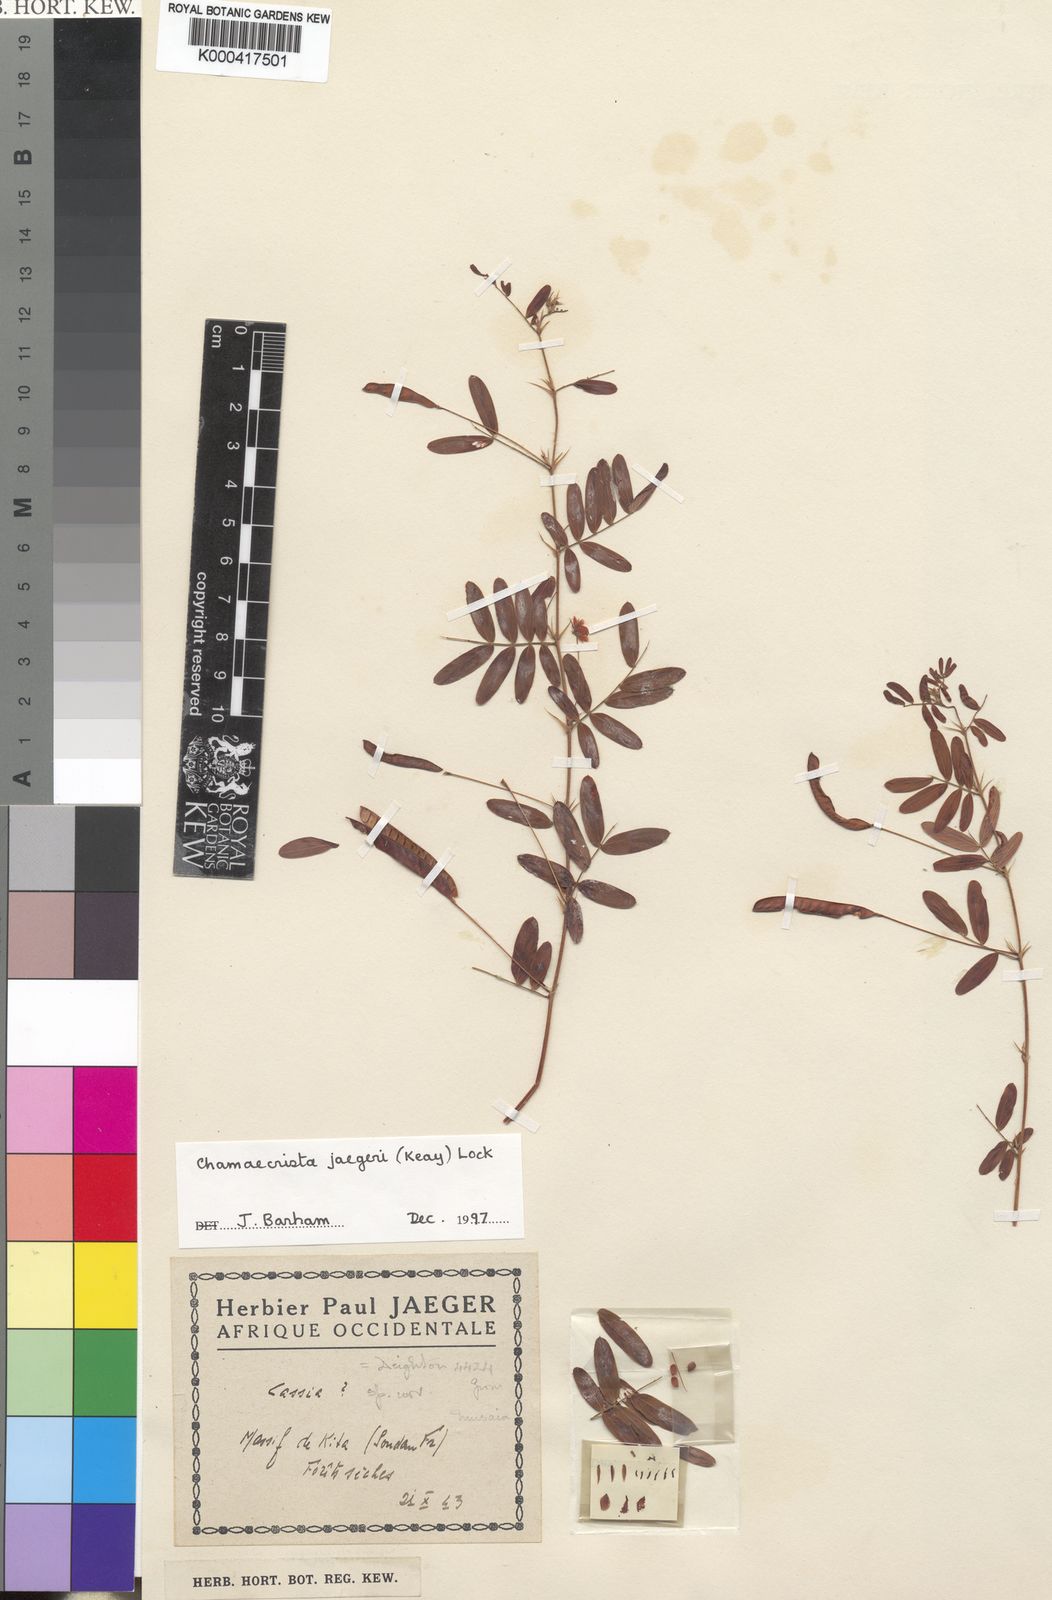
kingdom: Plantae
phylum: Tracheophyta
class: Magnoliopsida
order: Fabales
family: Fabaceae
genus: Chamaecrista
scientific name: Chamaecrista jaegeri
